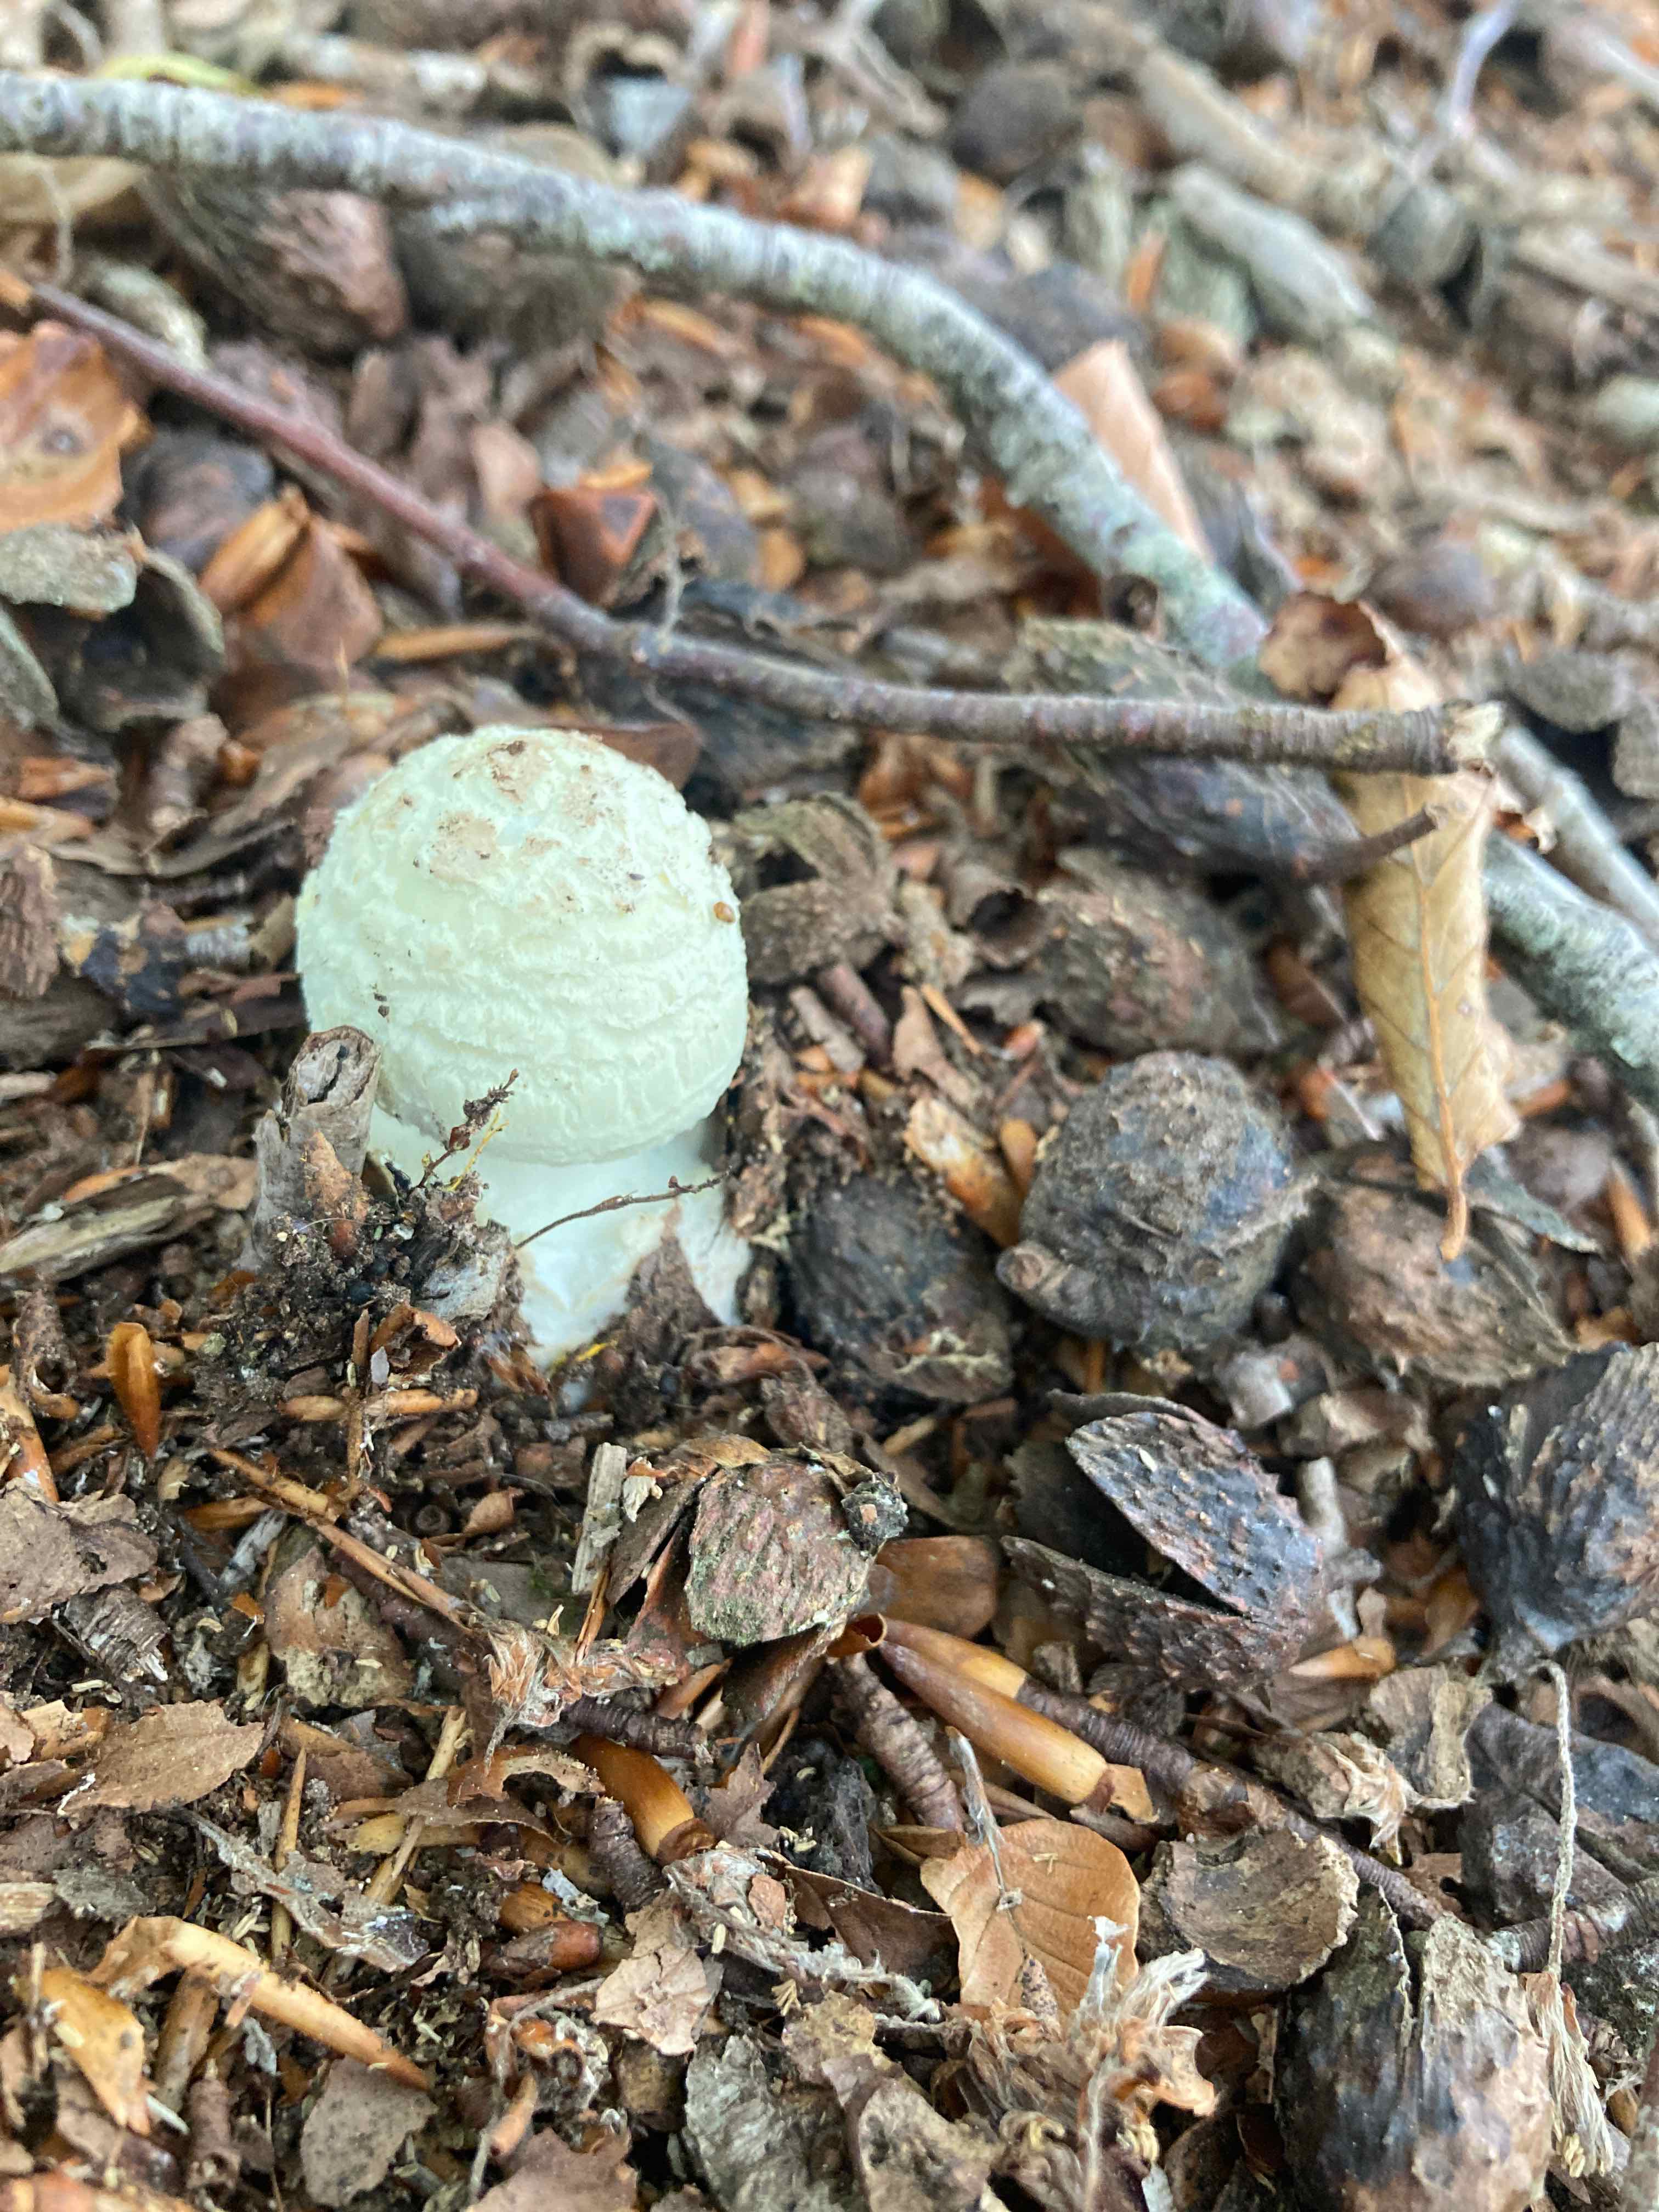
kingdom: Fungi
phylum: Basidiomycota
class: Agaricomycetes
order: Agaricales
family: Amanitaceae
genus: Amanita
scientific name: Amanita citrina
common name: kugleknoldet fluesvamp
